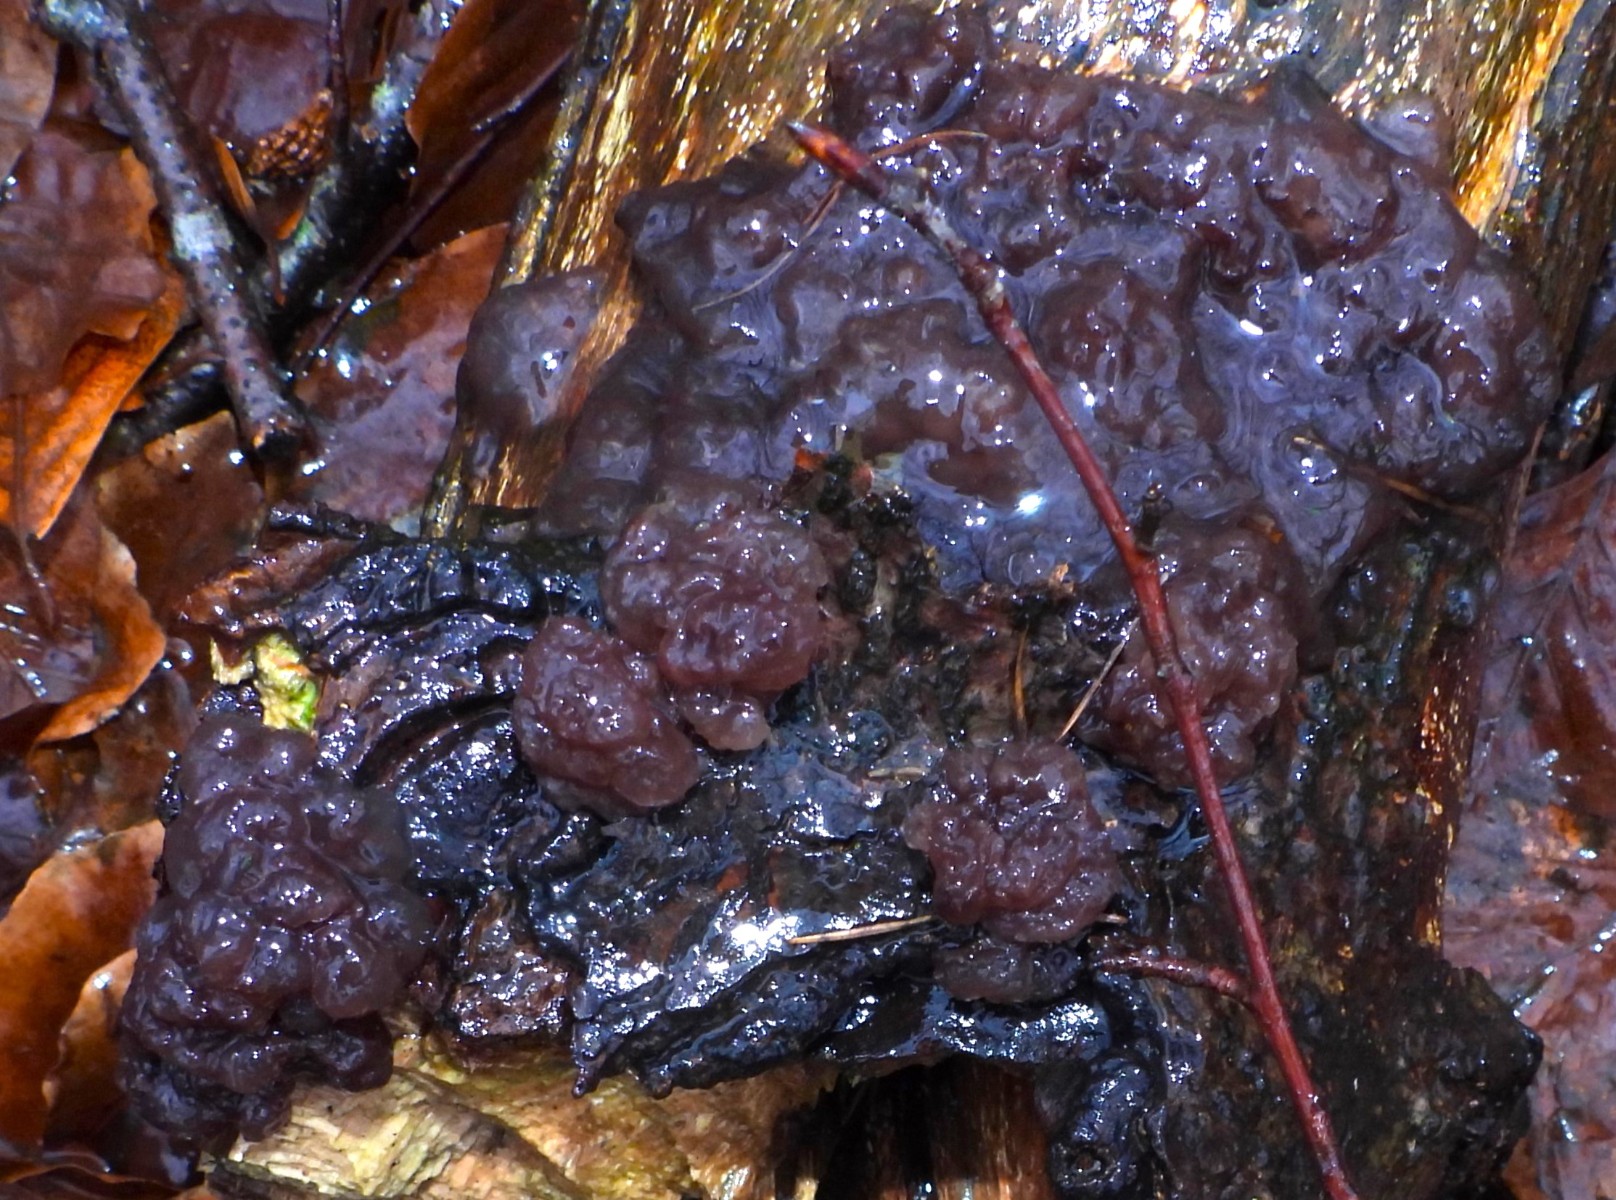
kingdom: Fungi
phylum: Ascomycota
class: Leotiomycetes
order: Helotiales
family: Gelatinodiscaceae
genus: Ascotremella
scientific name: Ascotremella faginea
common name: hjerne-bævreskive
